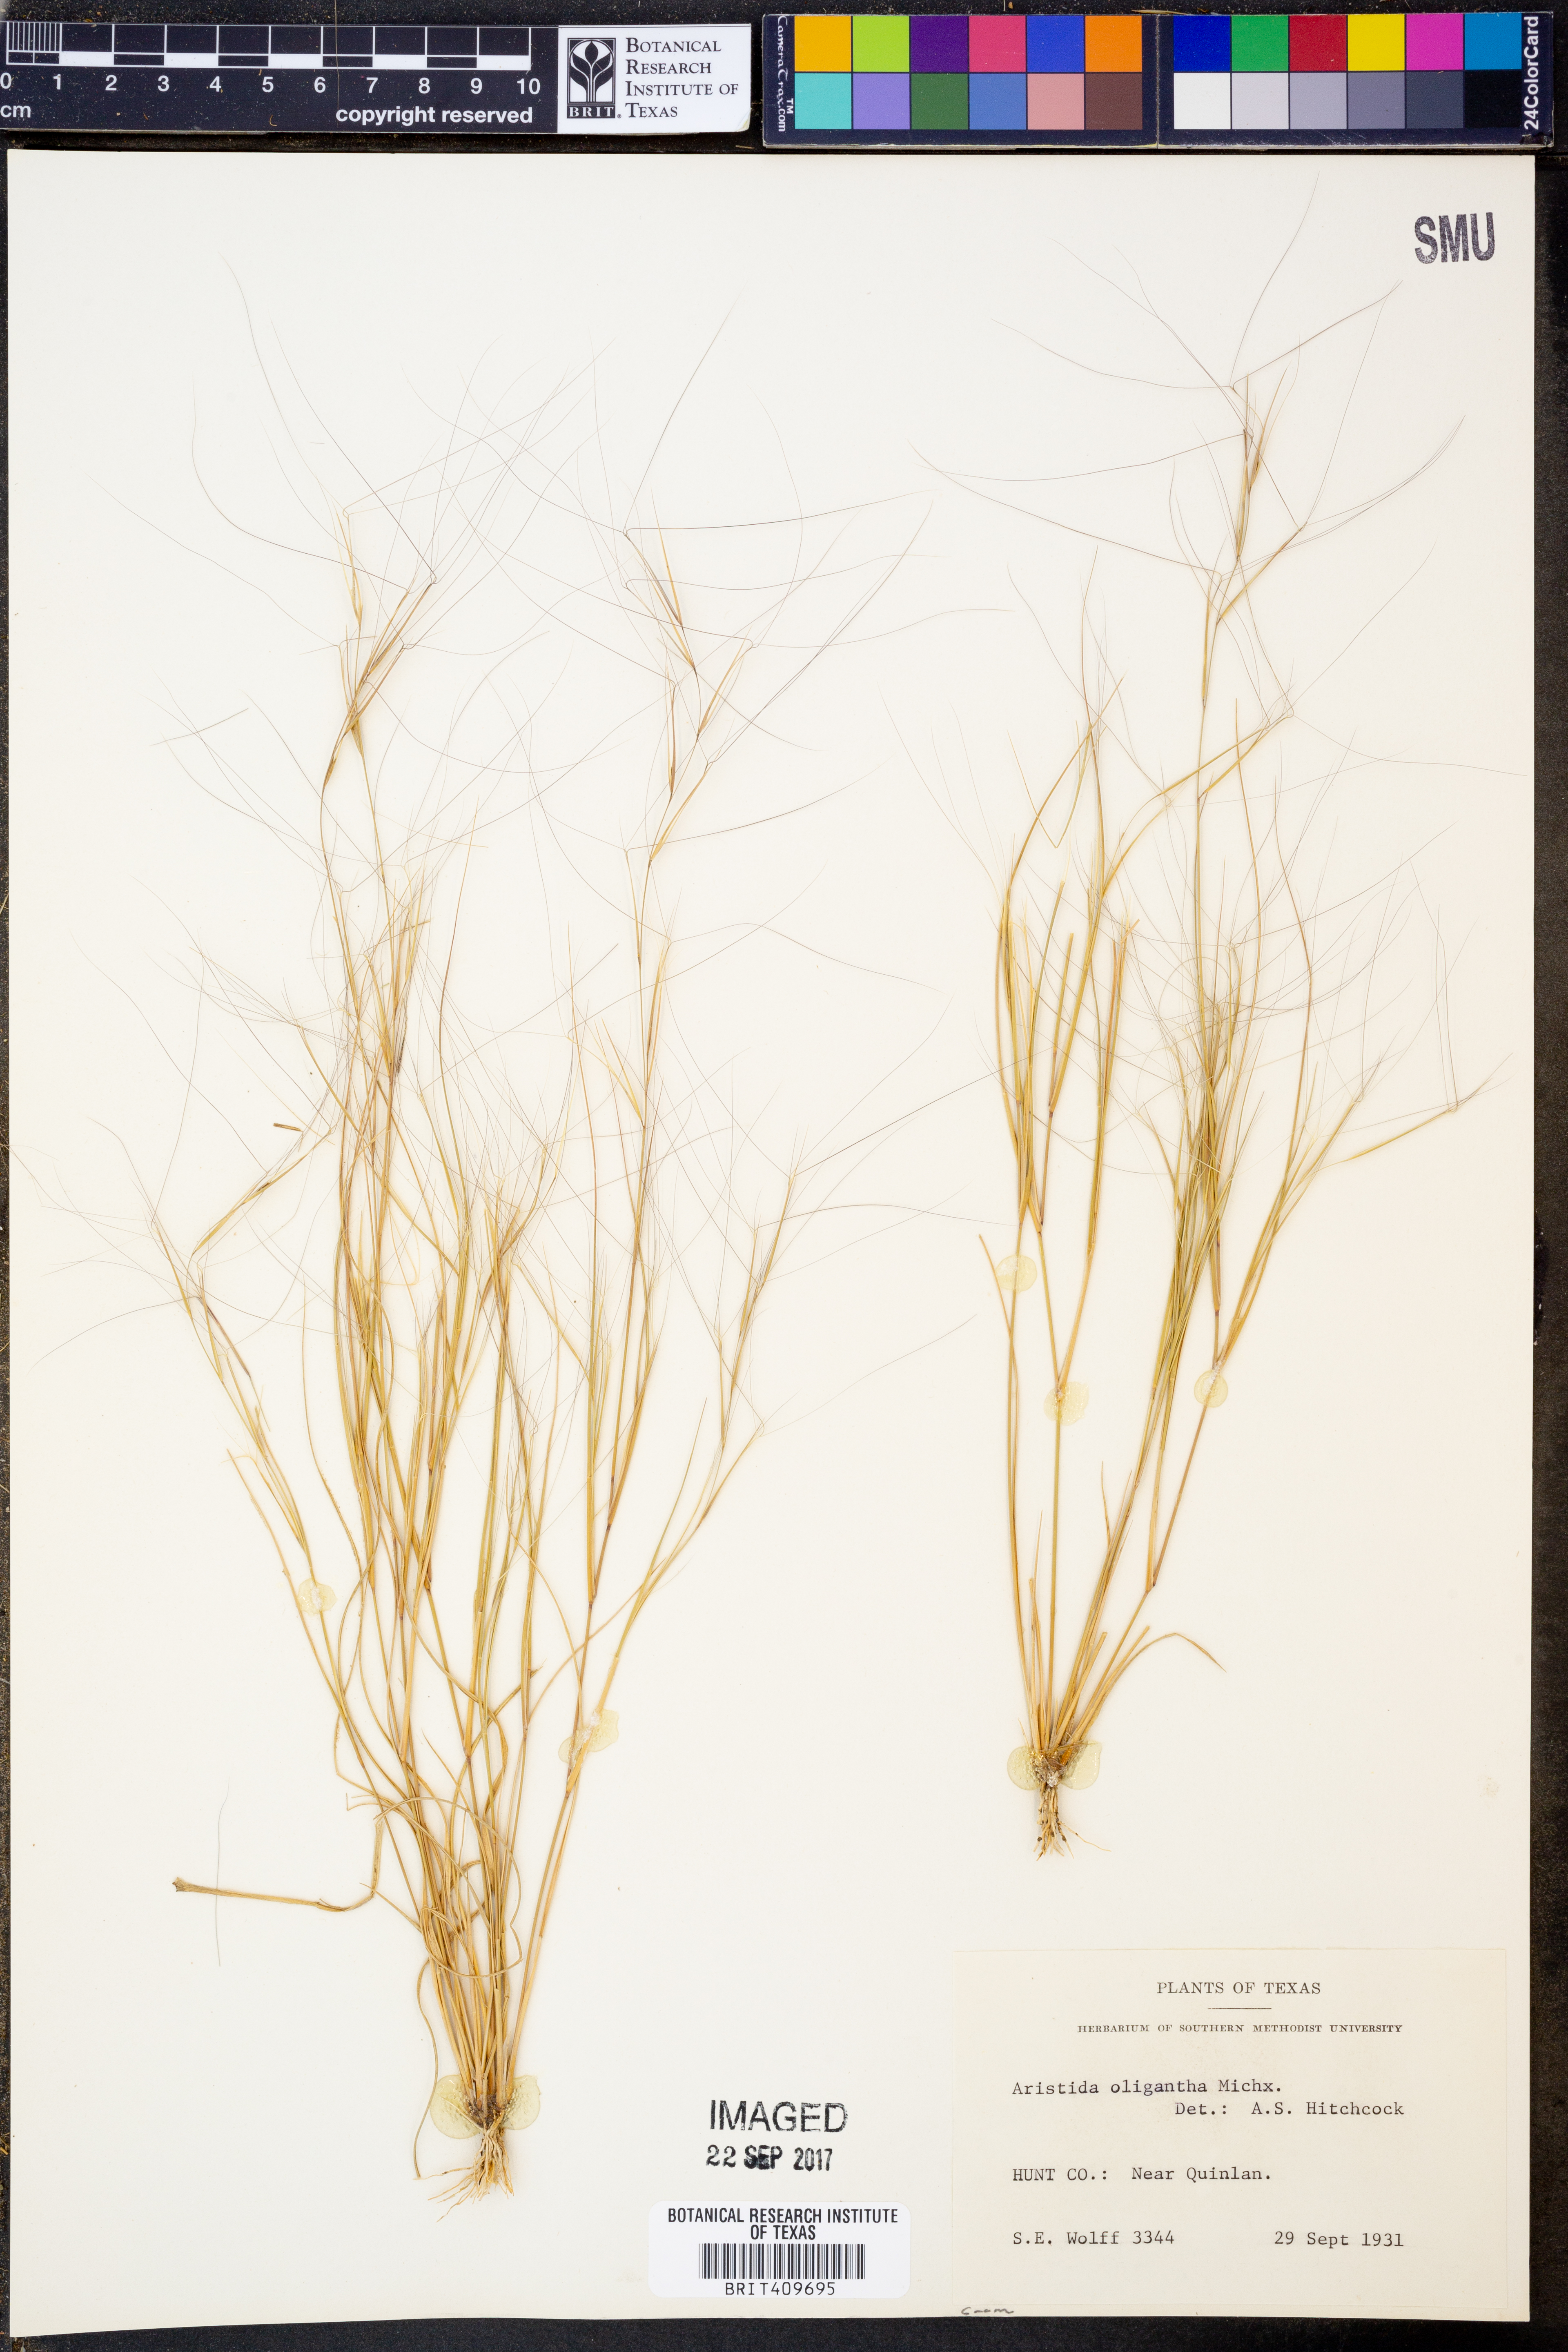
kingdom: Plantae
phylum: Tracheophyta
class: Liliopsida
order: Poales
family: Poaceae
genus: Aristida
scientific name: Aristida oligantha
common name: Few-flowered aristida
